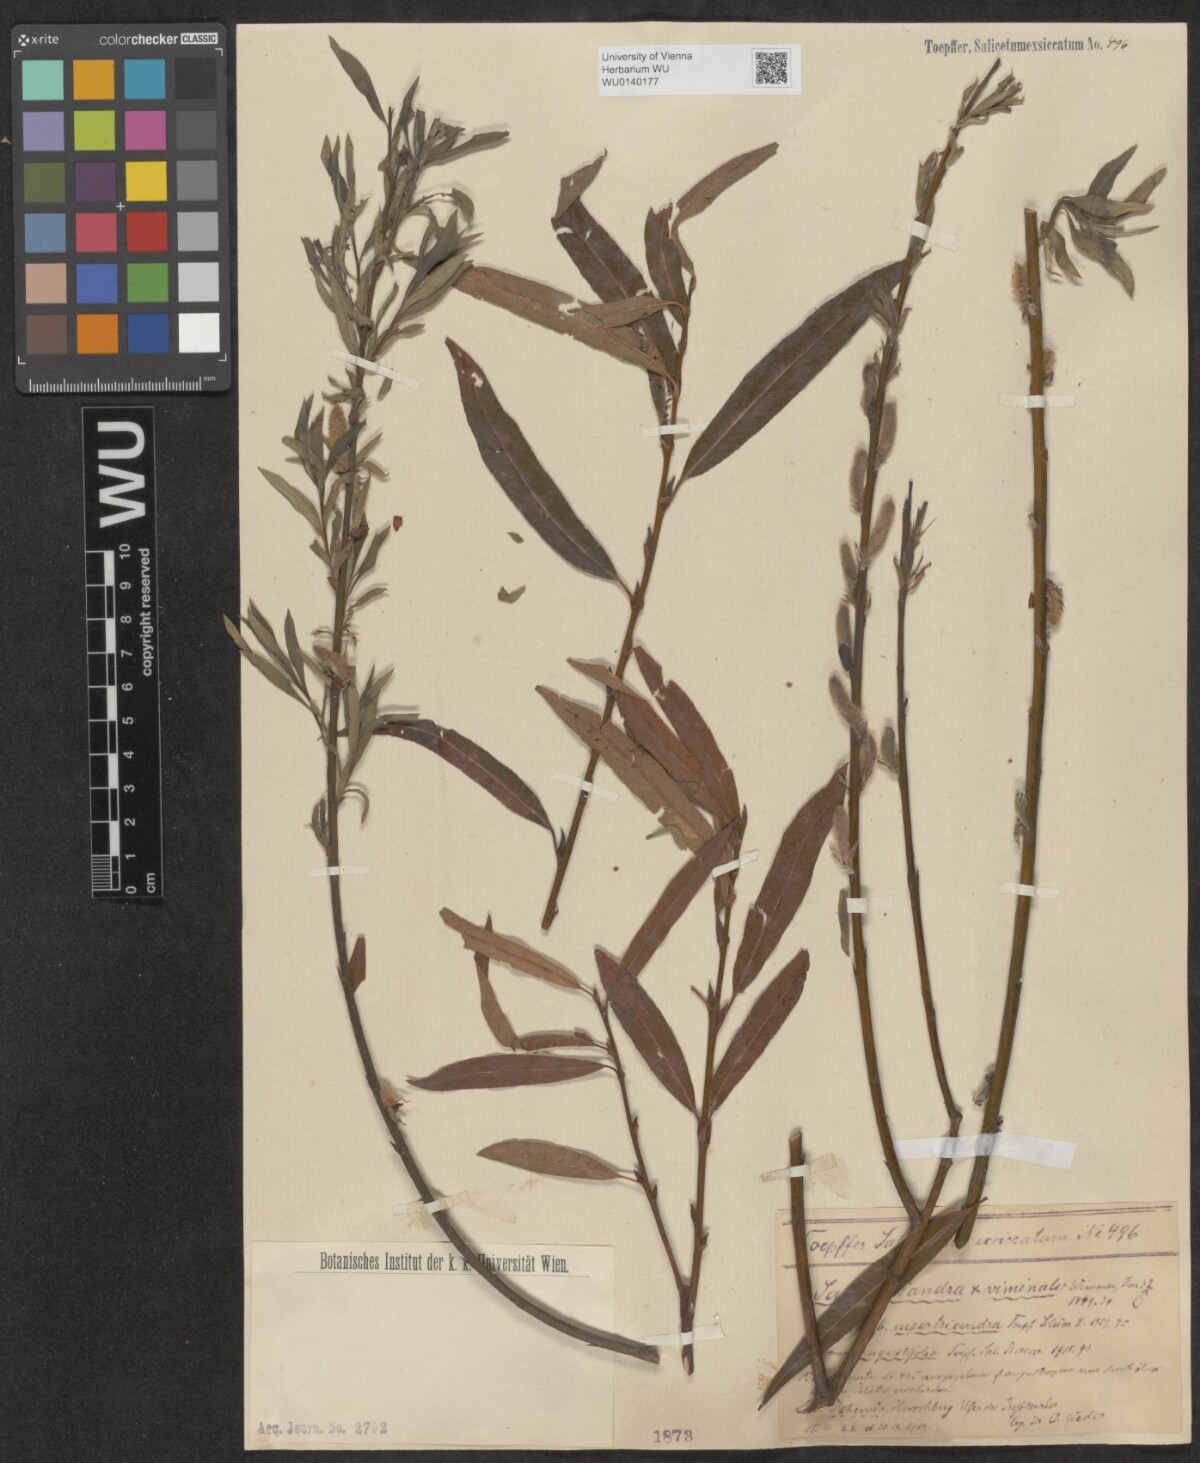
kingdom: Plantae
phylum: Tracheophyta
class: Magnoliopsida
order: Malpighiales
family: Salicaceae
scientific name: Salicaceae
